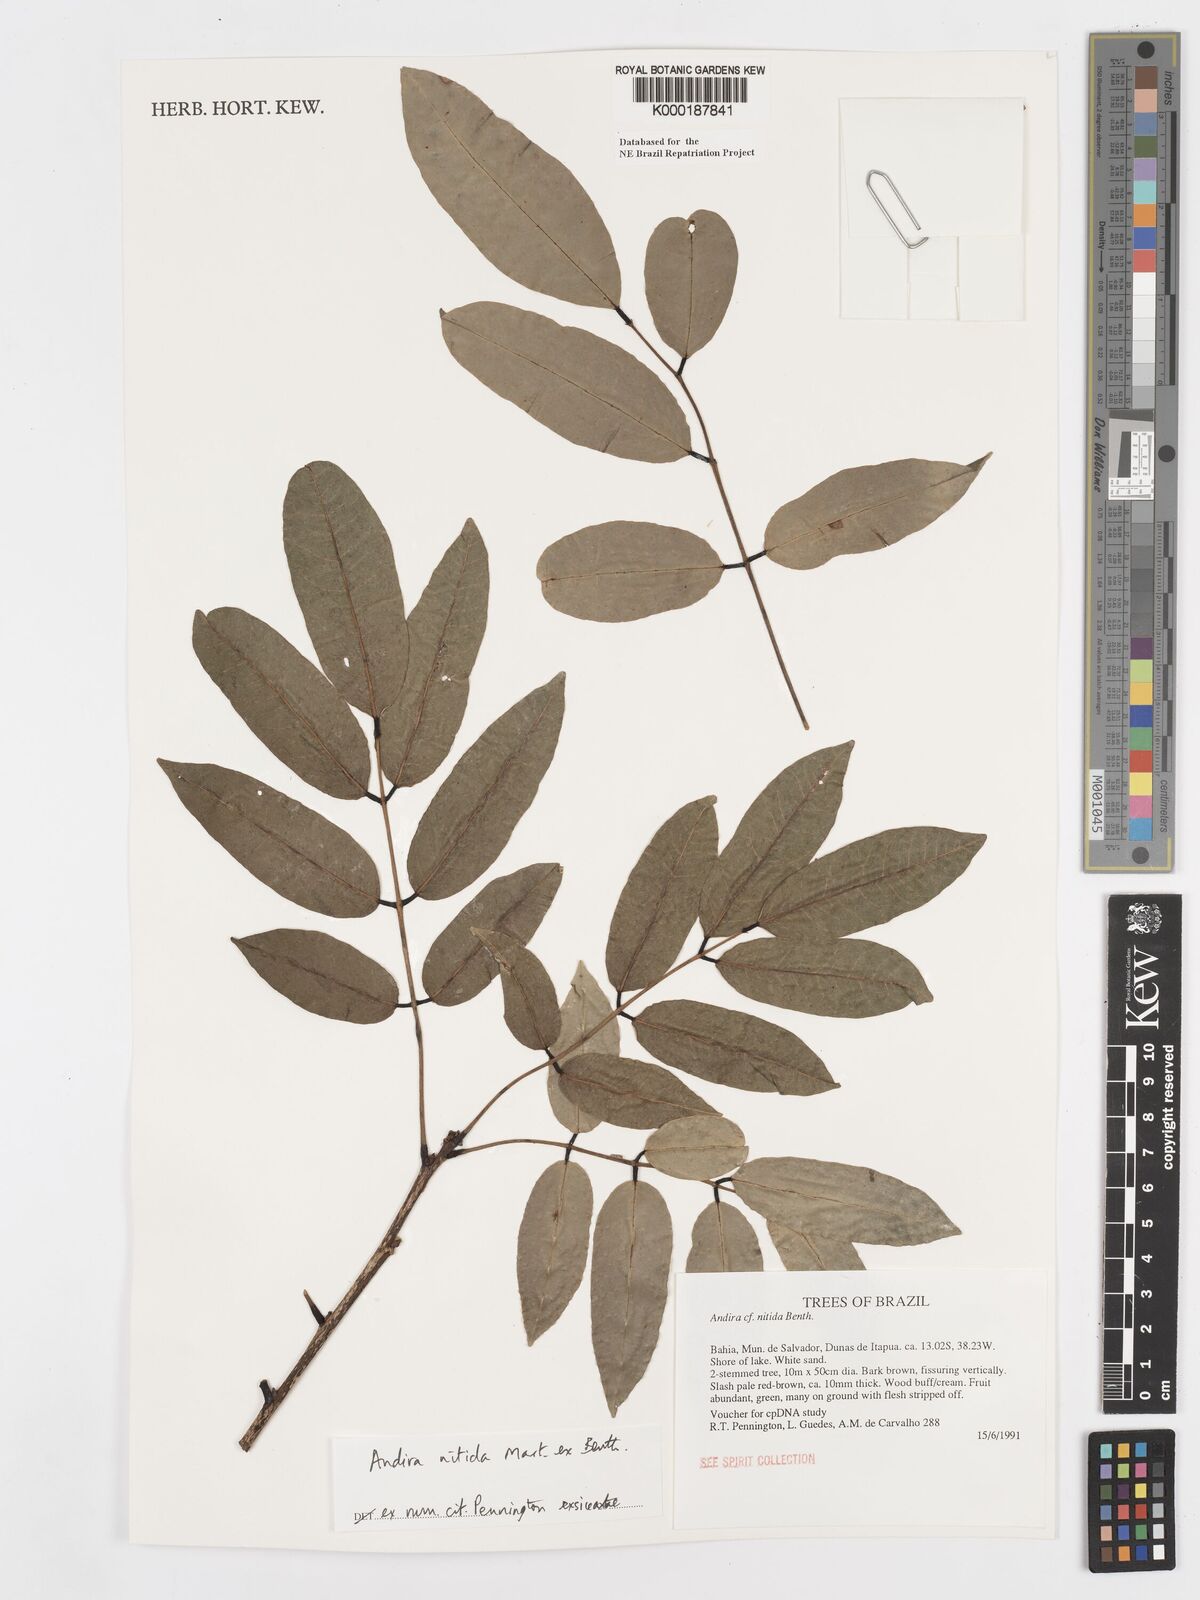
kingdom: Plantae
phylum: Tracheophyta
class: Magnoliopsida
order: Fabales
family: Fabaceae
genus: Andira
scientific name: Andira nitida
